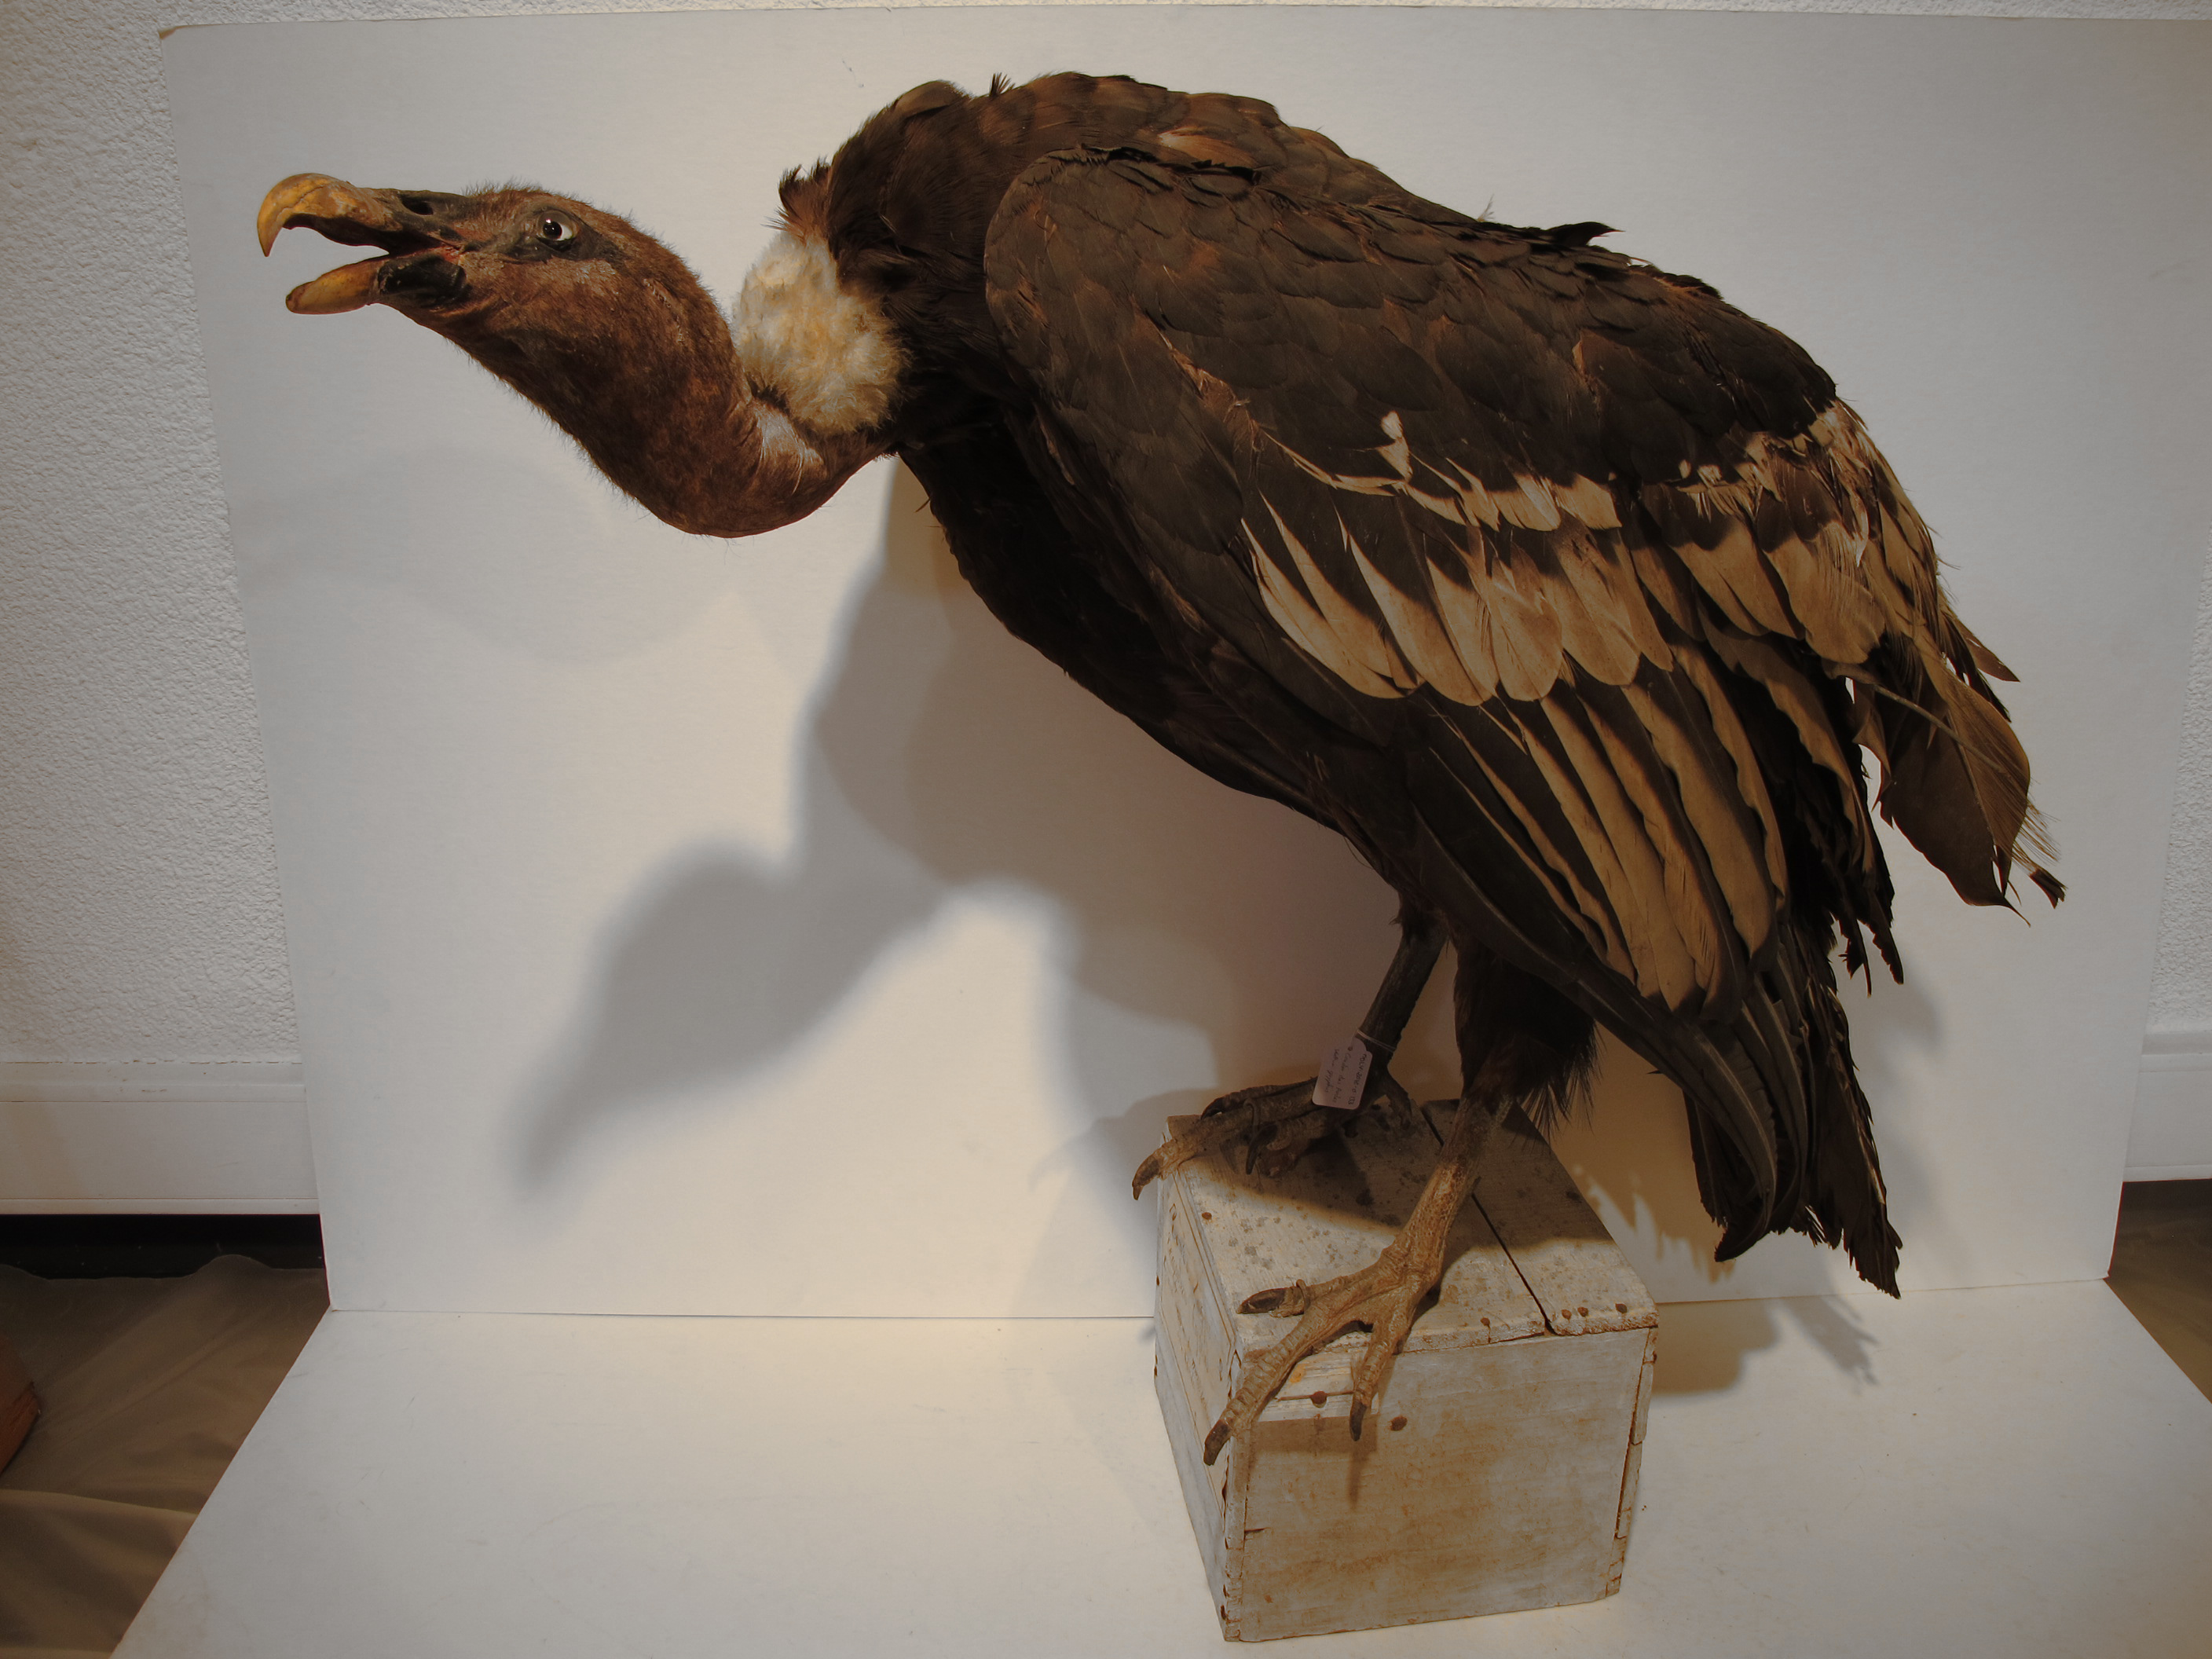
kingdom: Animalia
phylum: Chordata
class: Aves
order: Accipitriformes
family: Cathartidae
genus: Vultur
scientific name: Vultur gryphus
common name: Andean Condor
